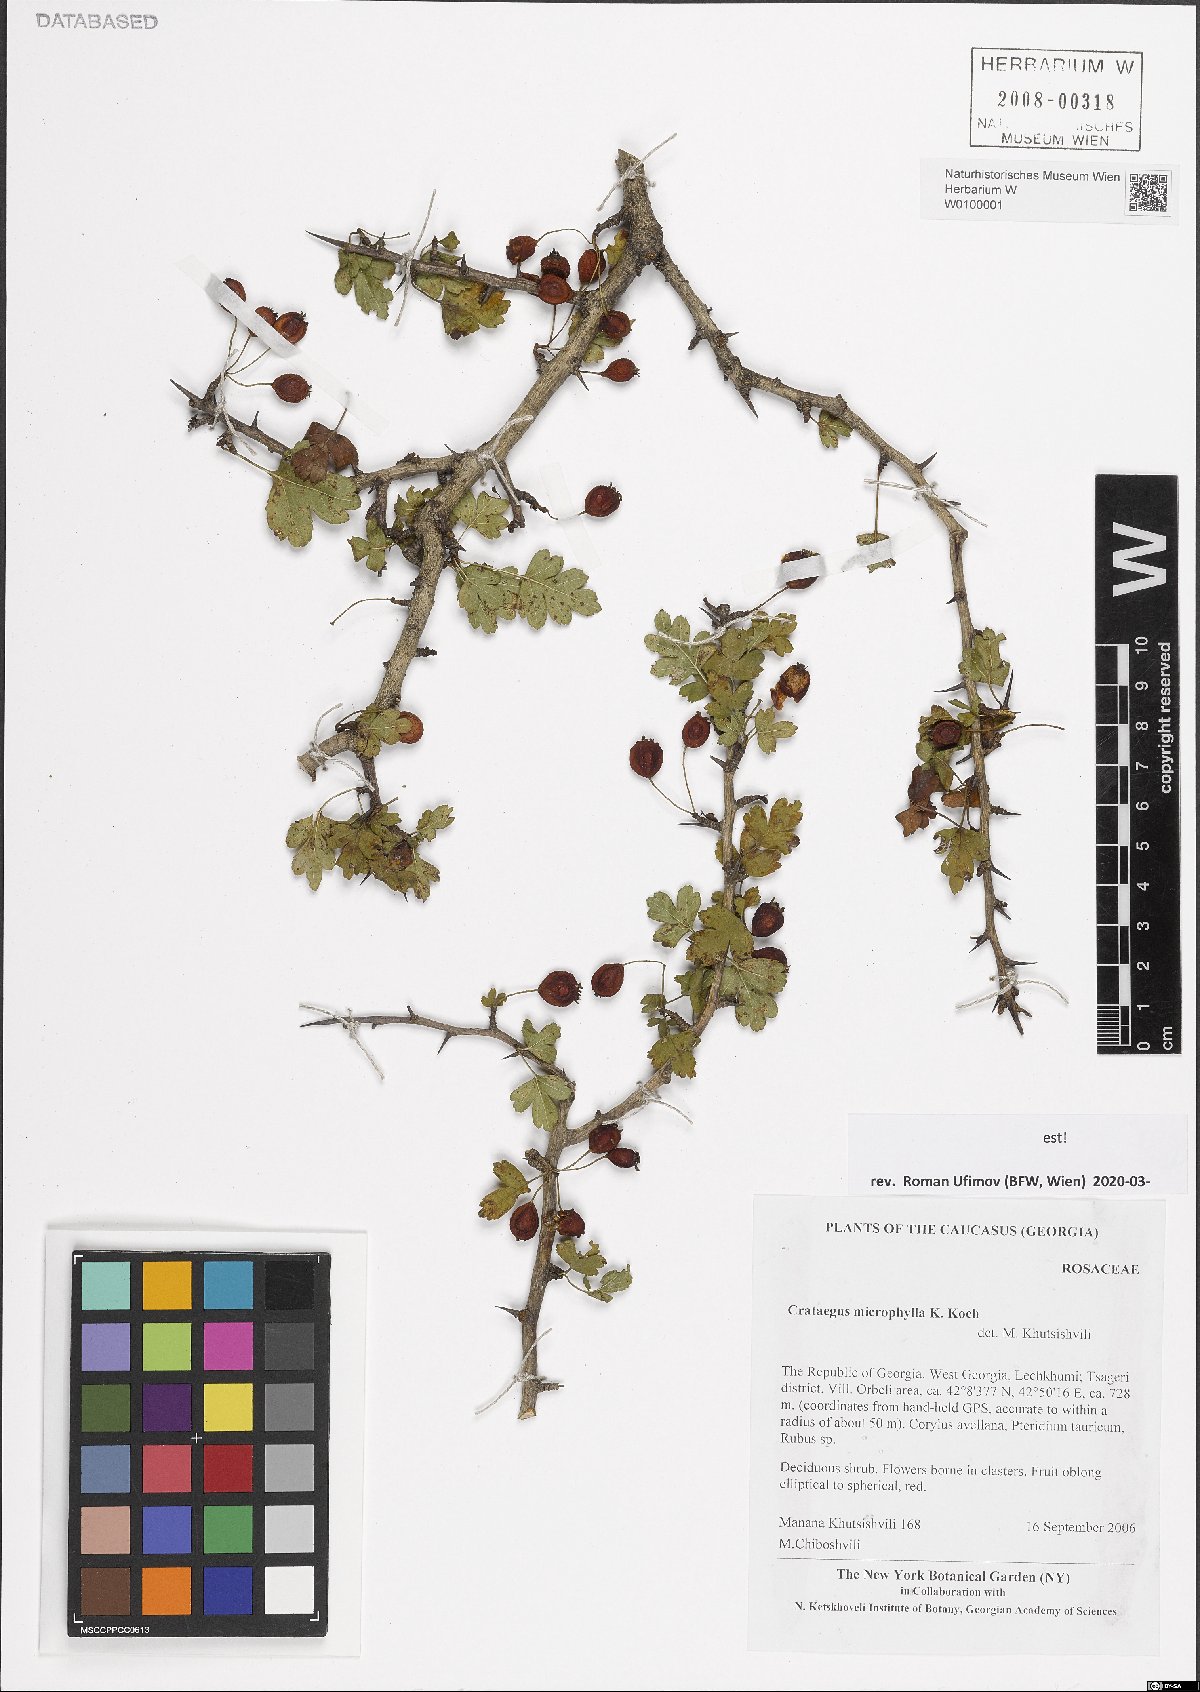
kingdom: Plantae
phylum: Tracheophyta
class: Magnoliopsida
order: Rosales
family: Rosaceae
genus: Crataegus
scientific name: Crataegus microphylla
